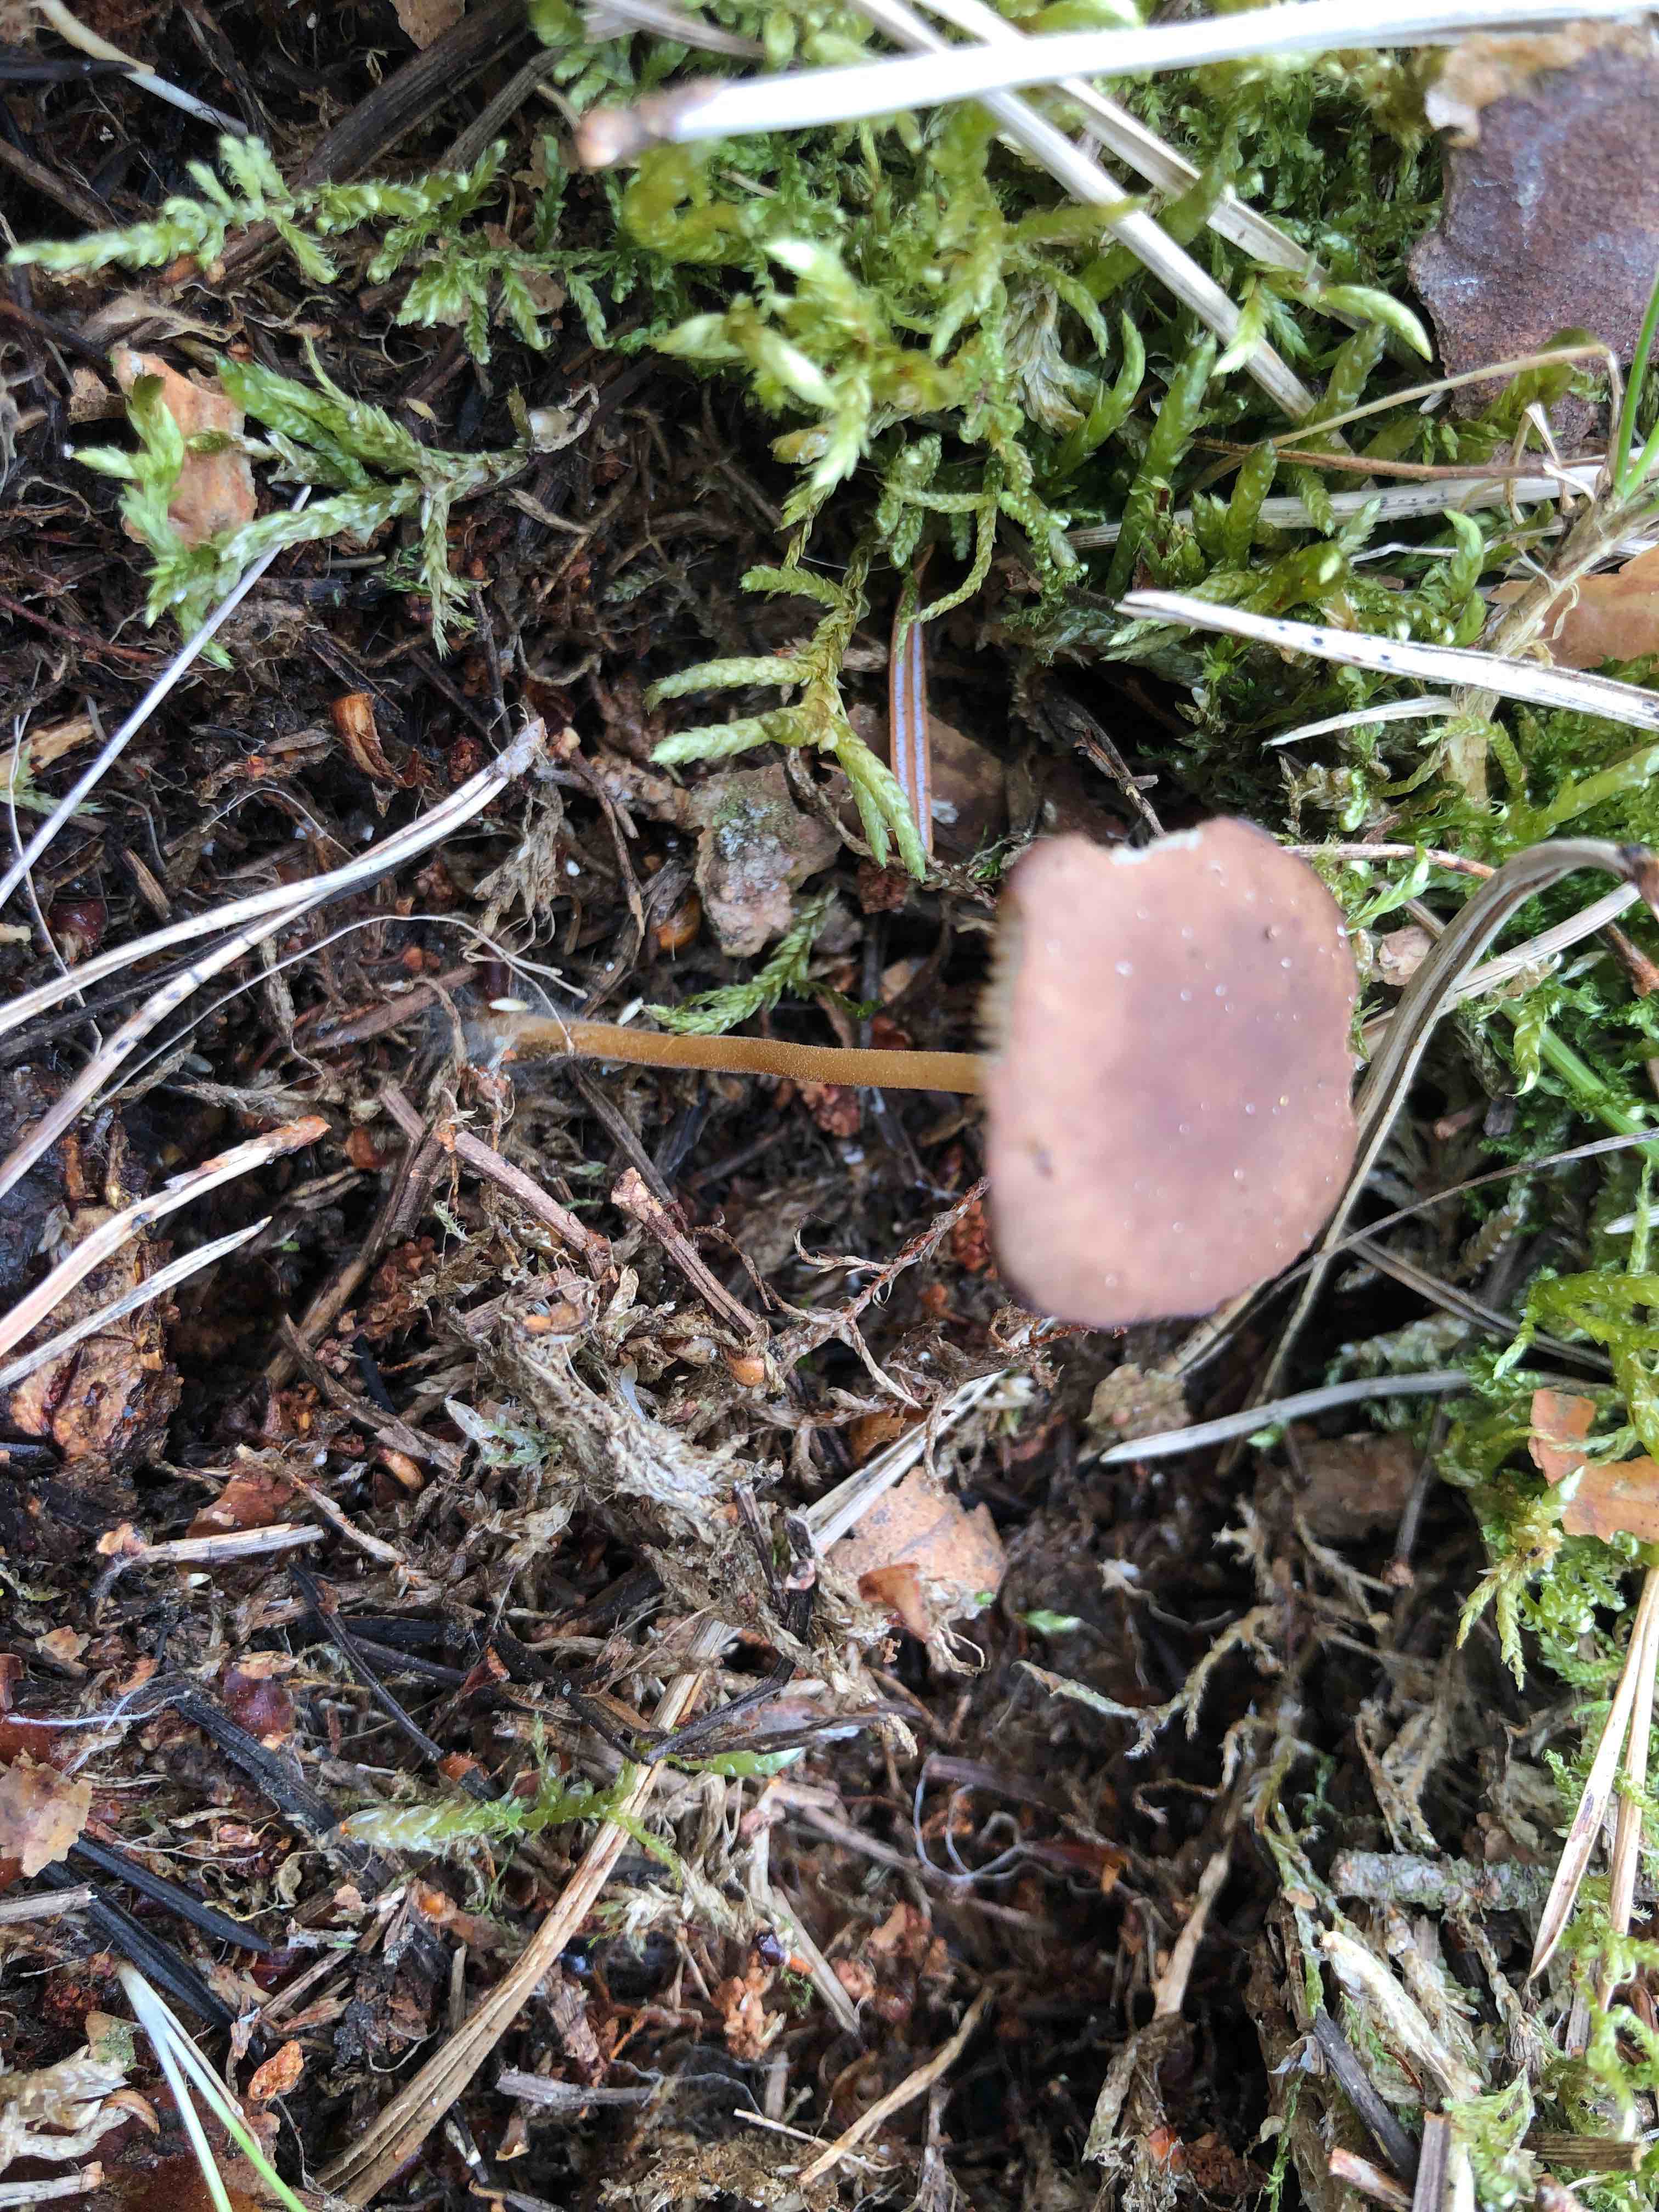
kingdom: Fungi
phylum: Basidiomycota
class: Agaricomycetes
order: Agaricales
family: Physalacriaceae
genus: Strobilurus
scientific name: Strobilurus tenacellus
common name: sommer-koglehat
